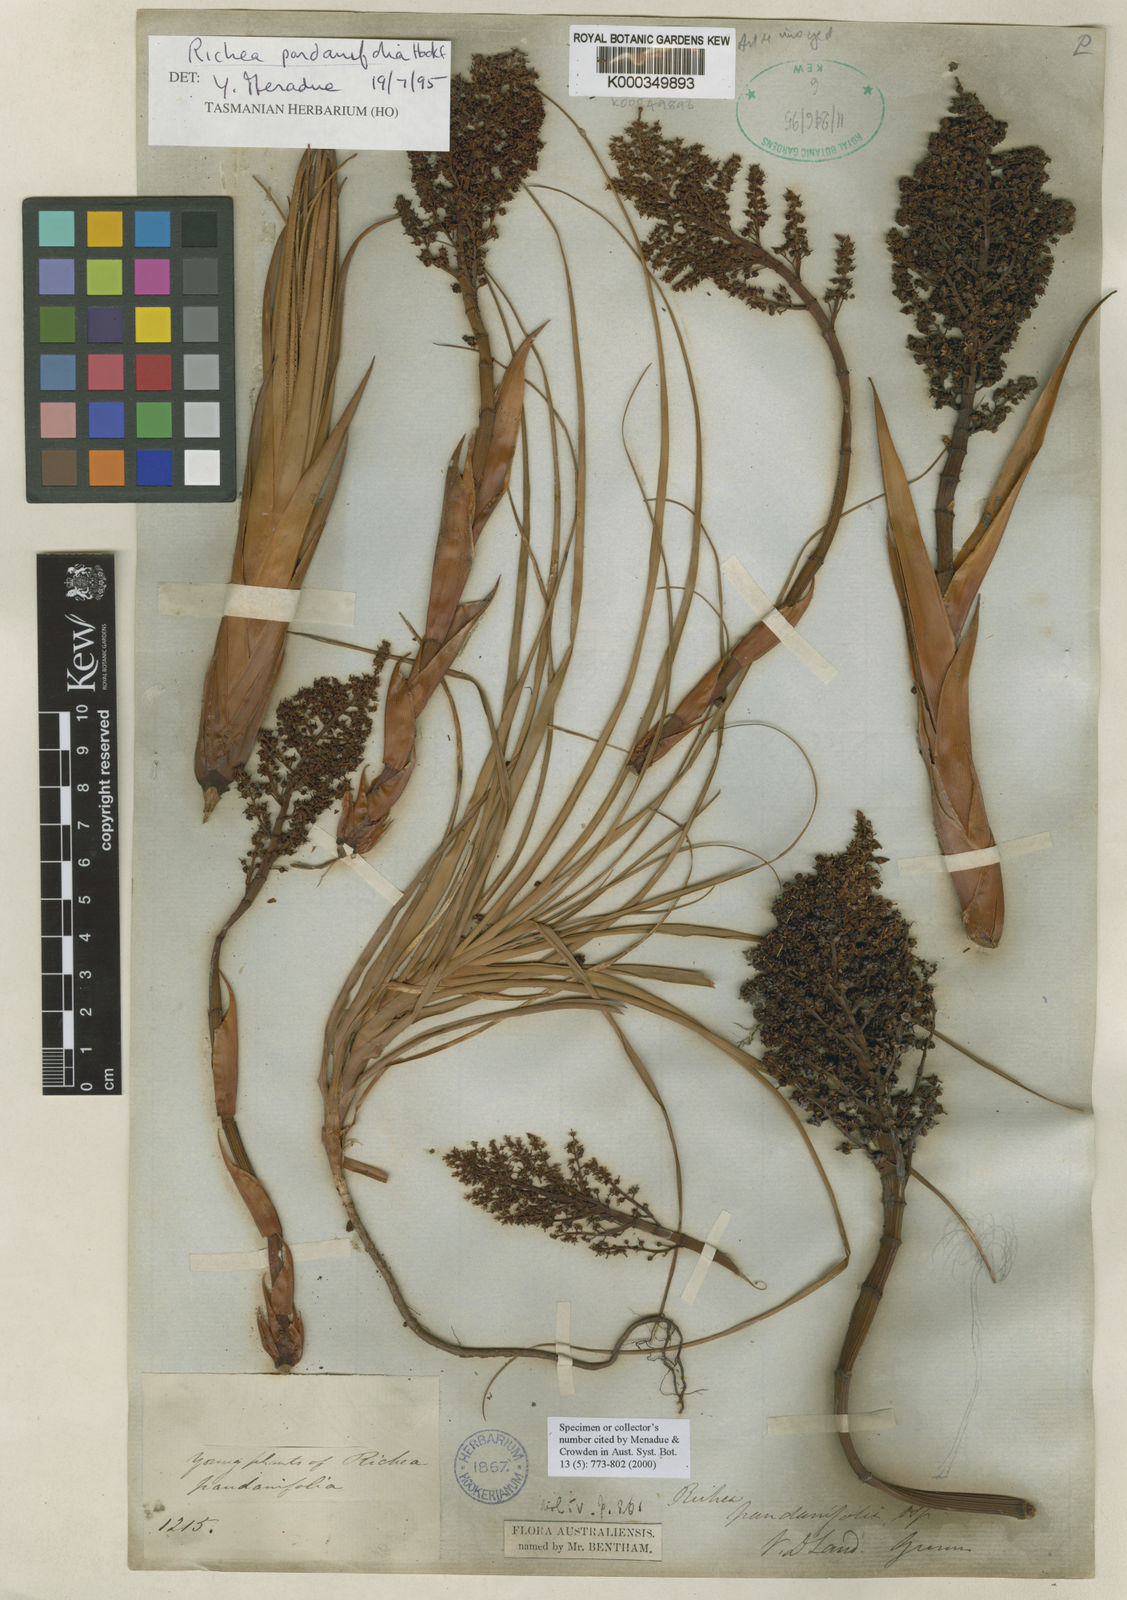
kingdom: Plantae
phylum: Tracheophyta
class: Magnoliopsida
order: Ericales
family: Ericaceae
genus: Dracophyllum
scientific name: Dracophyllum pandanifolium
